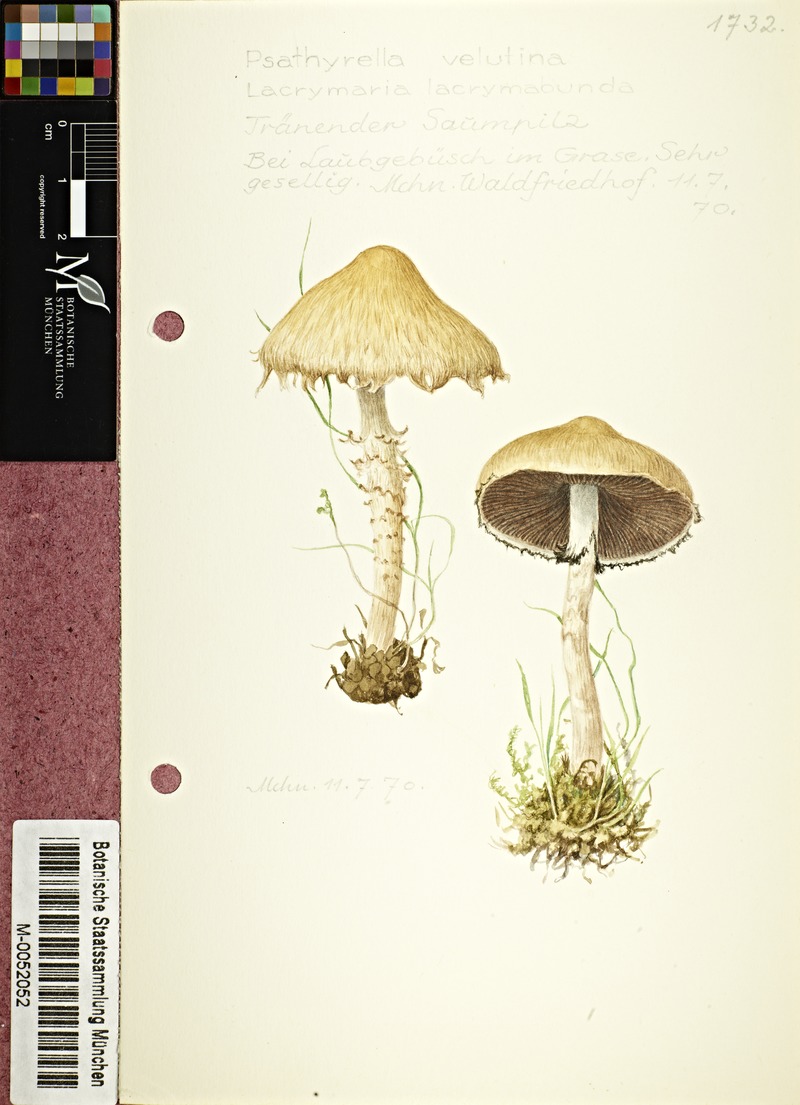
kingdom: Fungi
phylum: Basidiomycota
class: Agaricomycetes
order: Agaricales
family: Psathyrellaceae
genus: Lacrymaria
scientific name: Lacrymaria lacrymabunda
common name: Weeping widow
